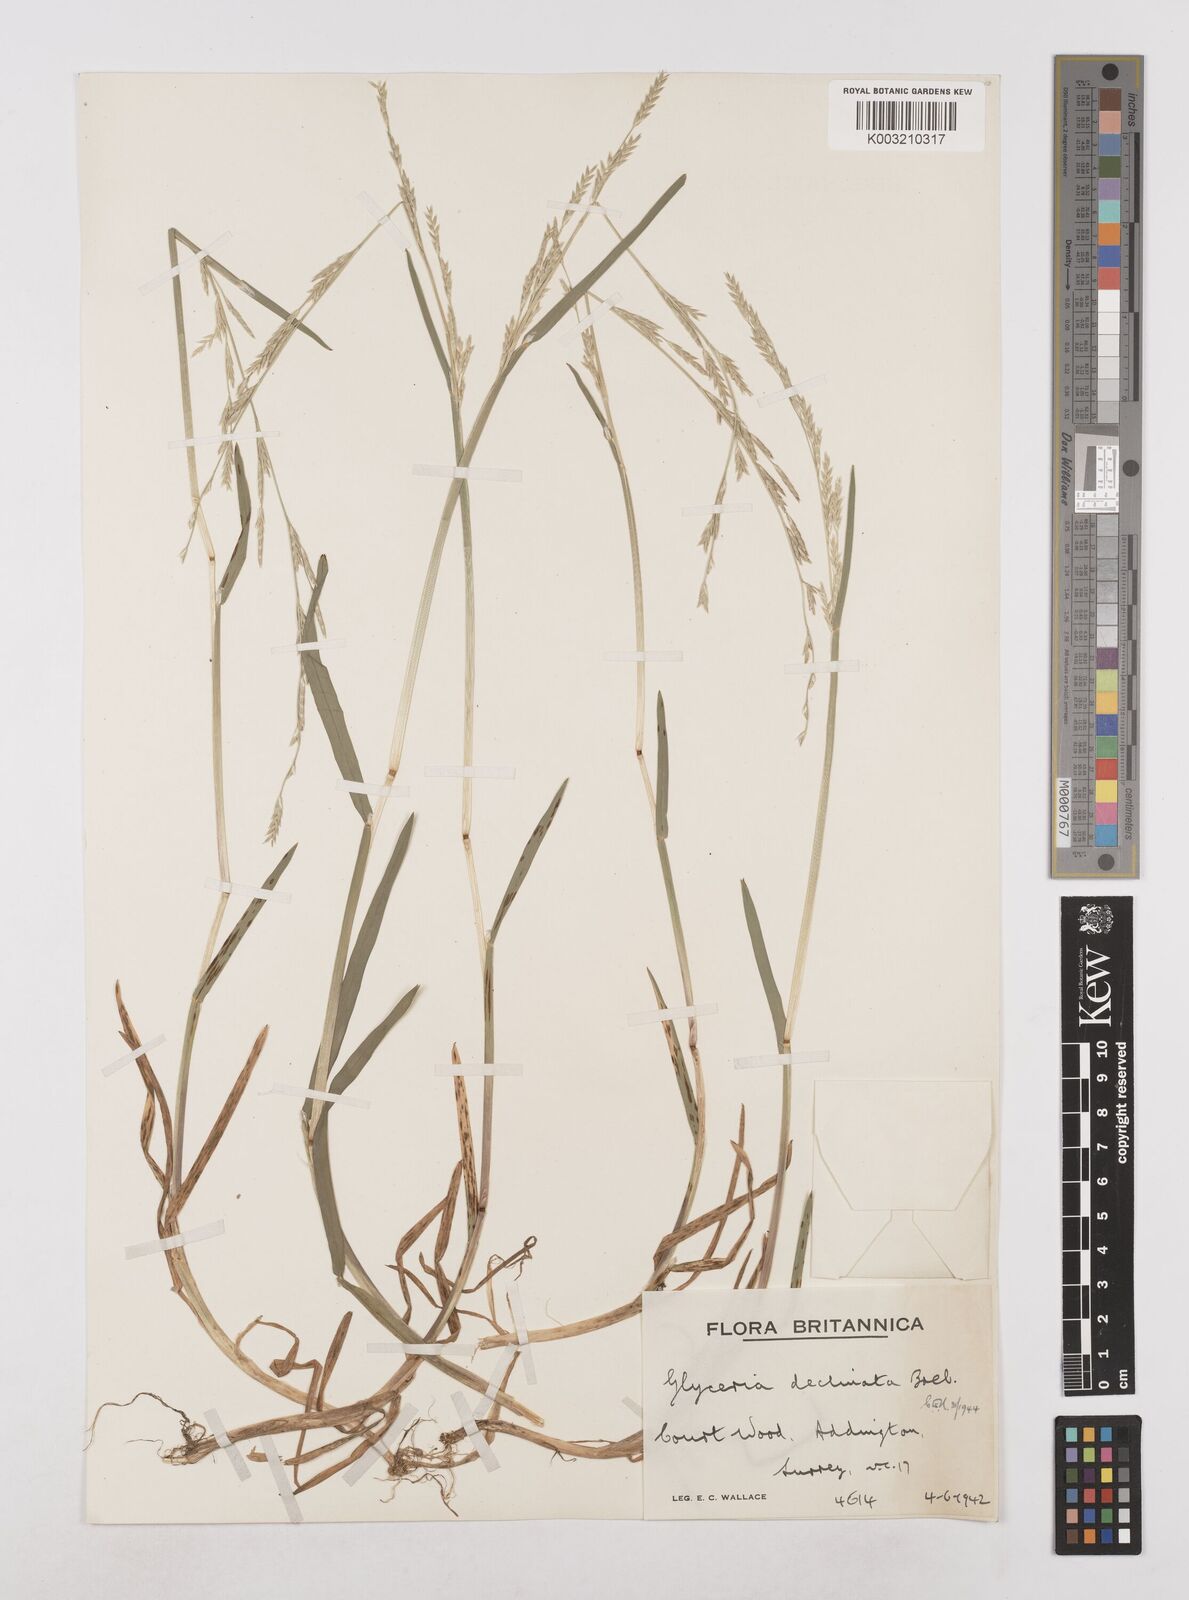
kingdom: Plantae
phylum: Tracheophyta
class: Liliopsida
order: Poales
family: Poaceae
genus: Glyceria
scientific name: Glyceria declinata
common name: Small sweet-grass
